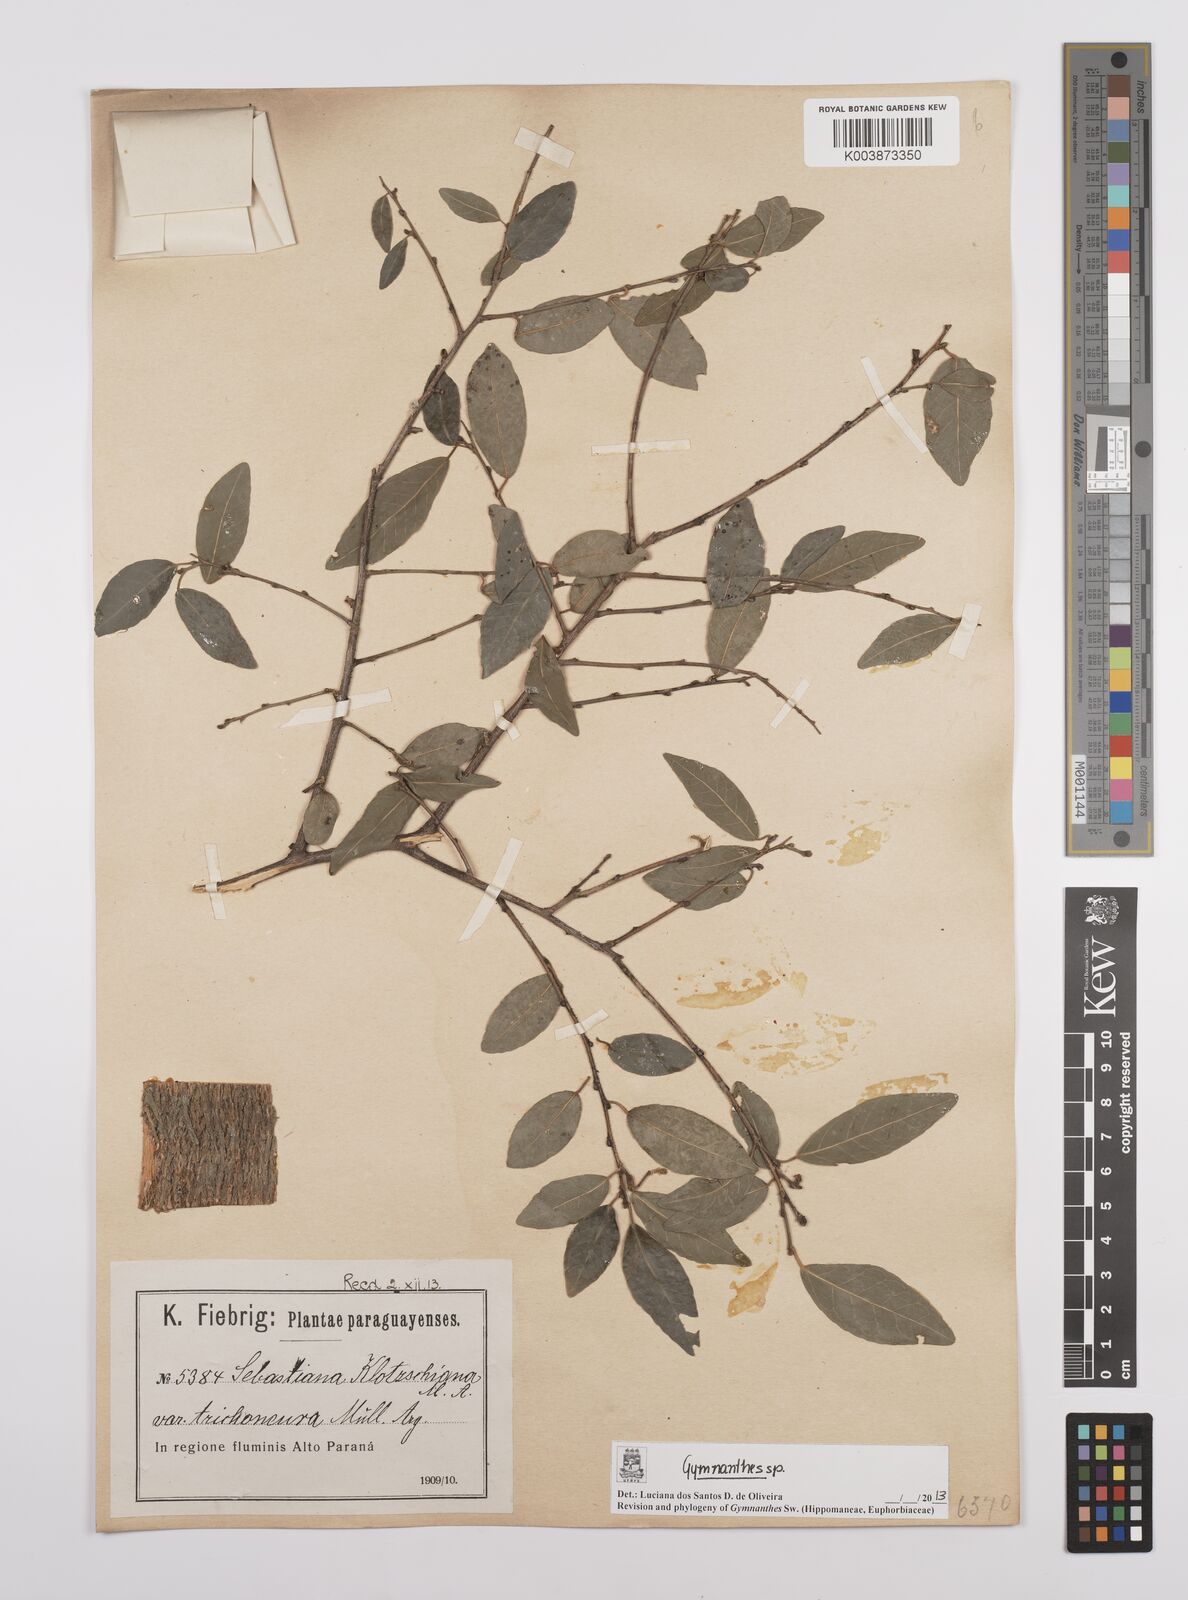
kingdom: Plantae
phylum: Tracheophyta
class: Magnoliopsida
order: Malpighiales
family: Euphorbiaceae
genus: Gymnanthes
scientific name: Gymnanthes
